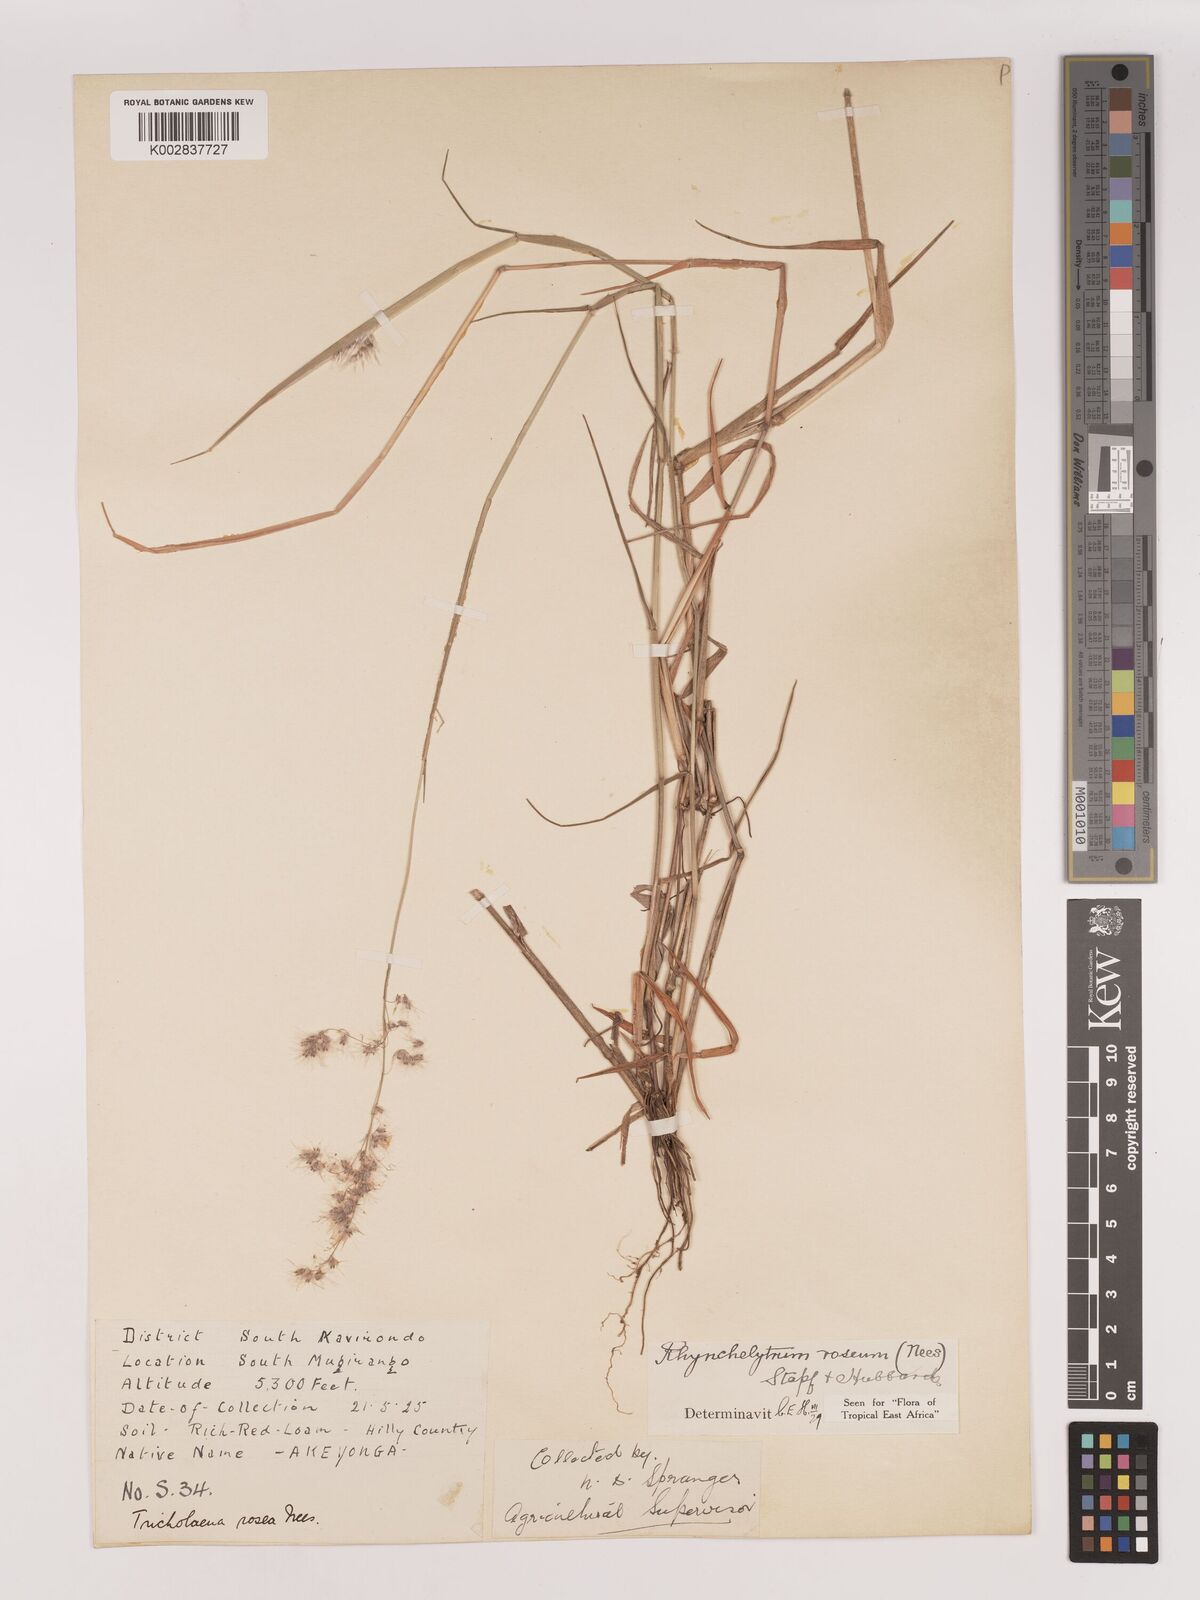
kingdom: Plantae
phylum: Tracheophyta
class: Liliopsida
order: Poales
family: Poaceae
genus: Melinis
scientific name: Melinis repens
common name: Rose natal grass
